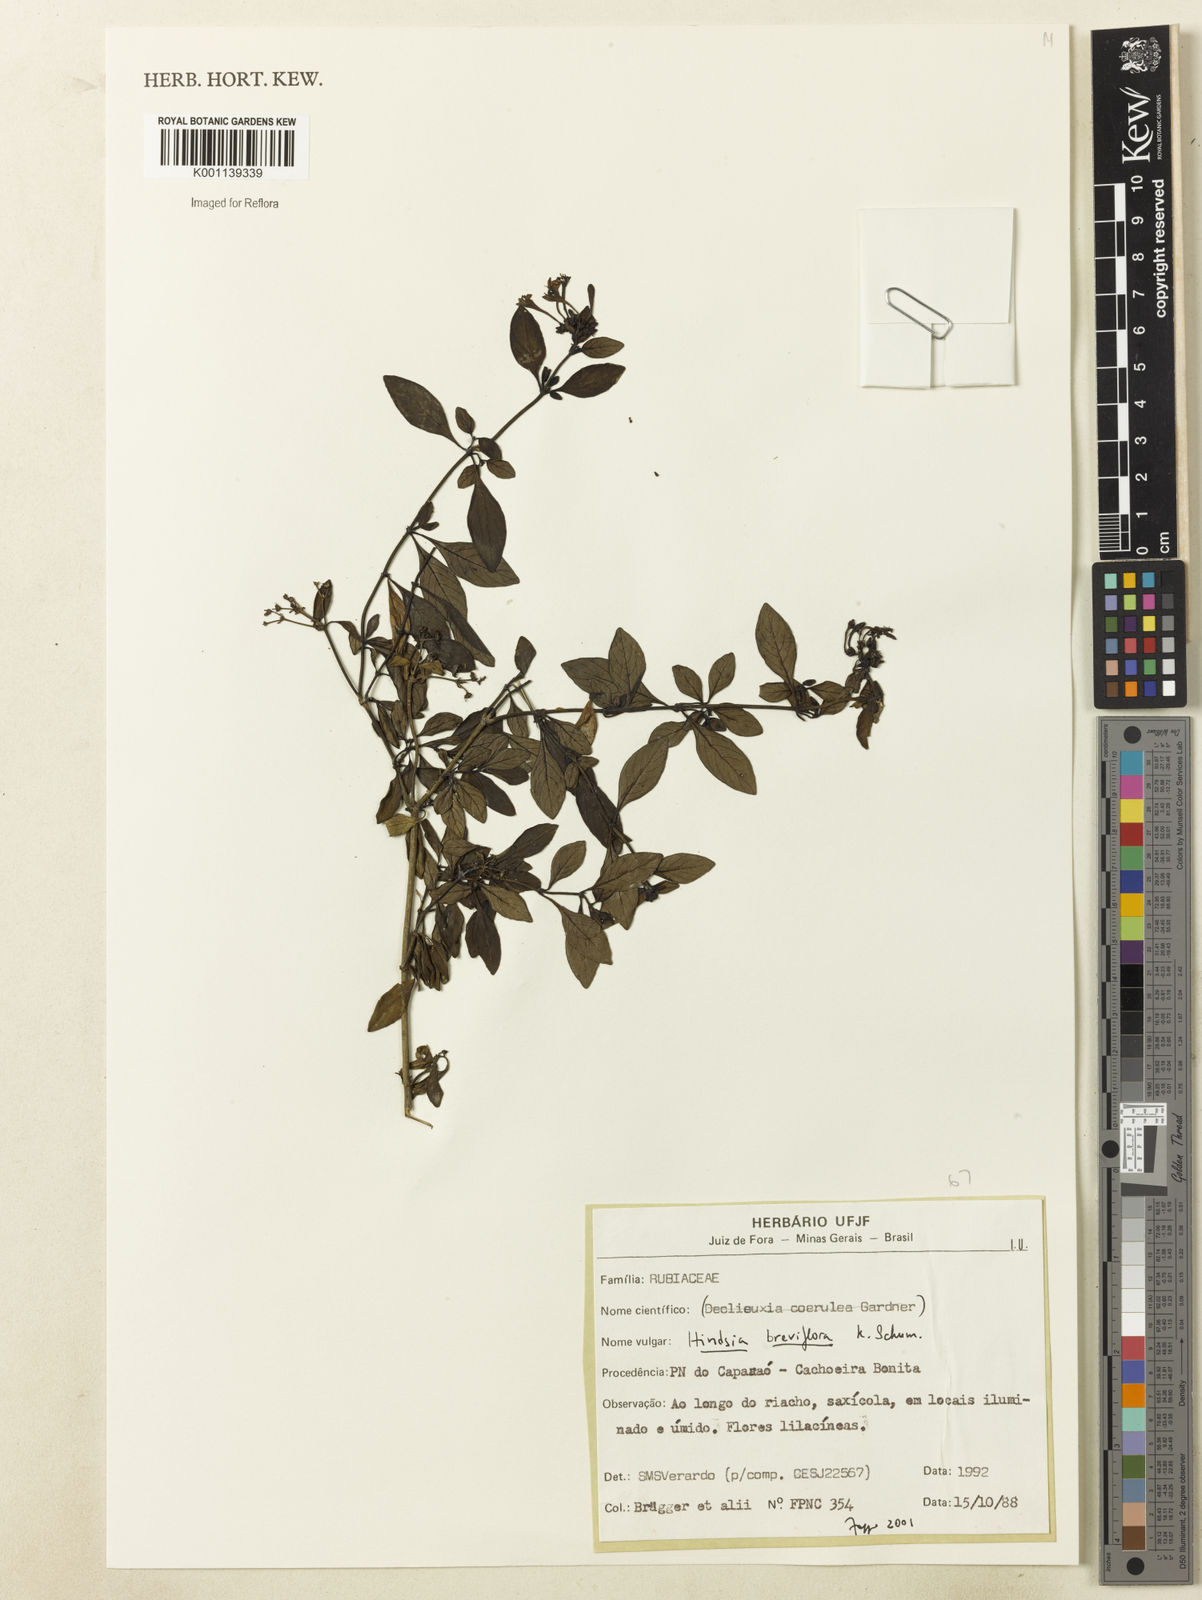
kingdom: Plantae
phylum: Tracheophyta
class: Magnoliopsida
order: Gentianales
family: Rubiaceae
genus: Hindsia
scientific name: Hindsia ramosissima
